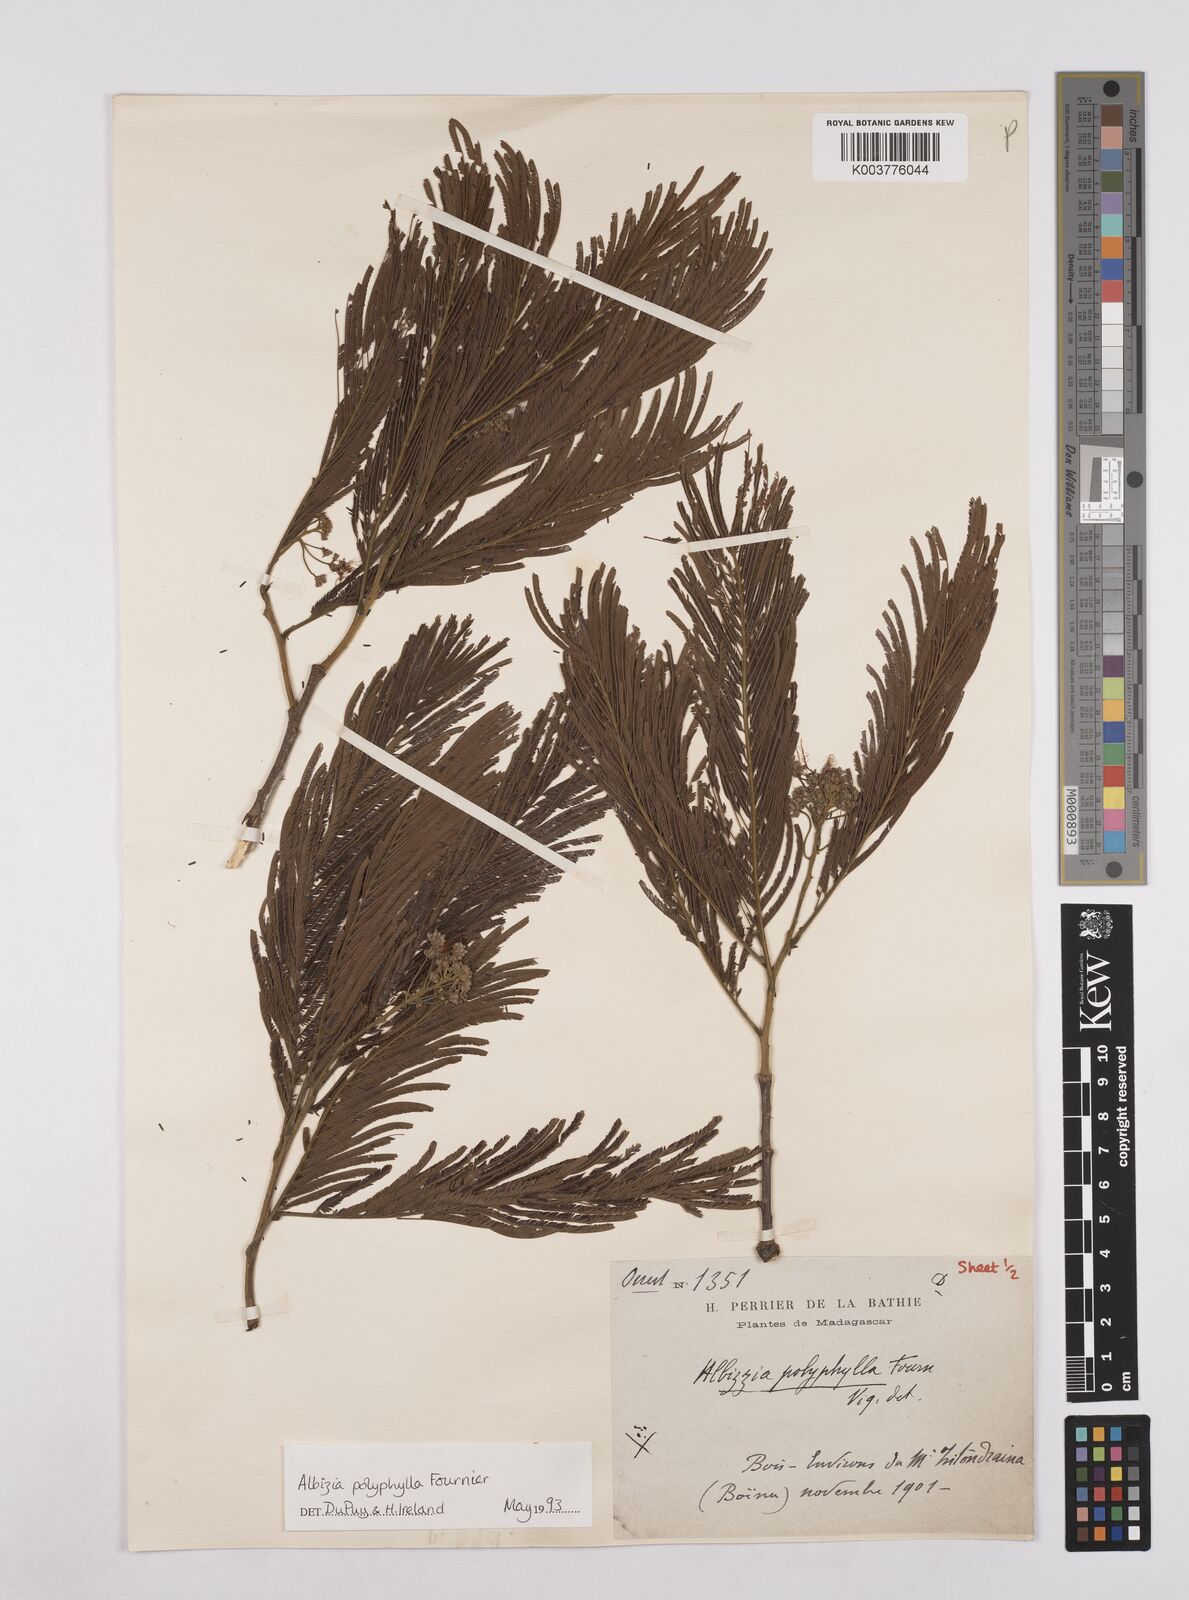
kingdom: Plantae
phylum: Tracheophyta
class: Magnoliopsida
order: Fabales
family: Fabaceae
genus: Albizia
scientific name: Albizia polyphylla
